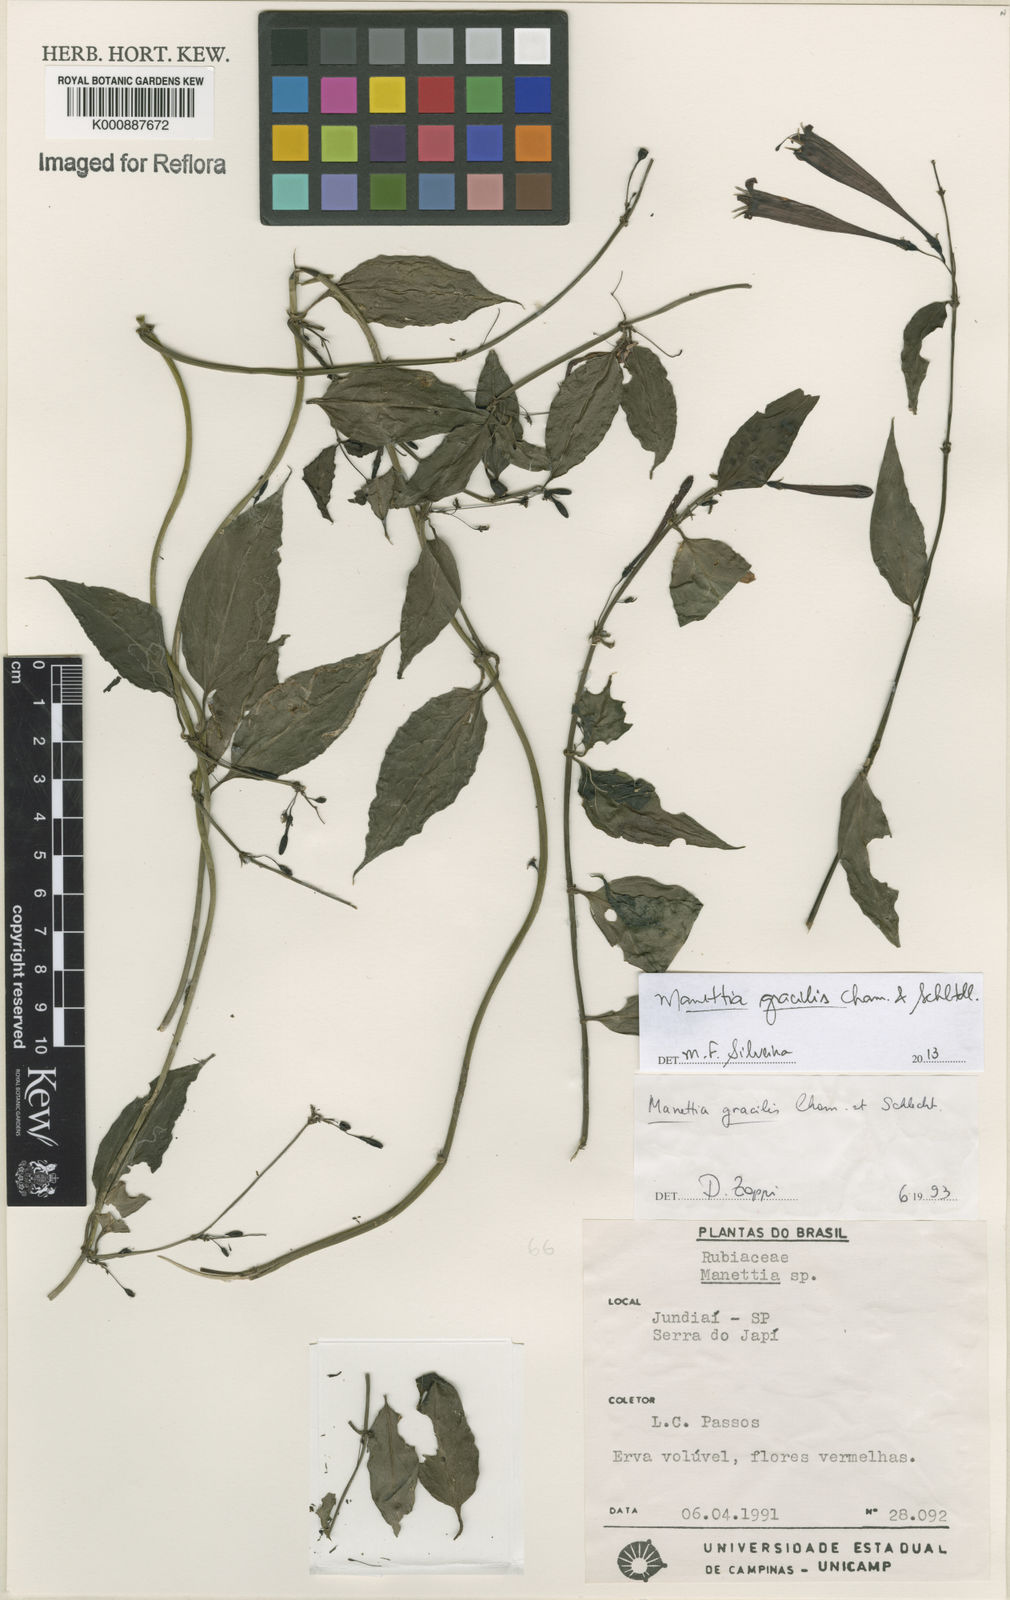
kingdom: Plantae
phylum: Tracheophyta
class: Magnoliopsida
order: Gentianales
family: Rubiaceae
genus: Manettia
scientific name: Manettia gracilis
